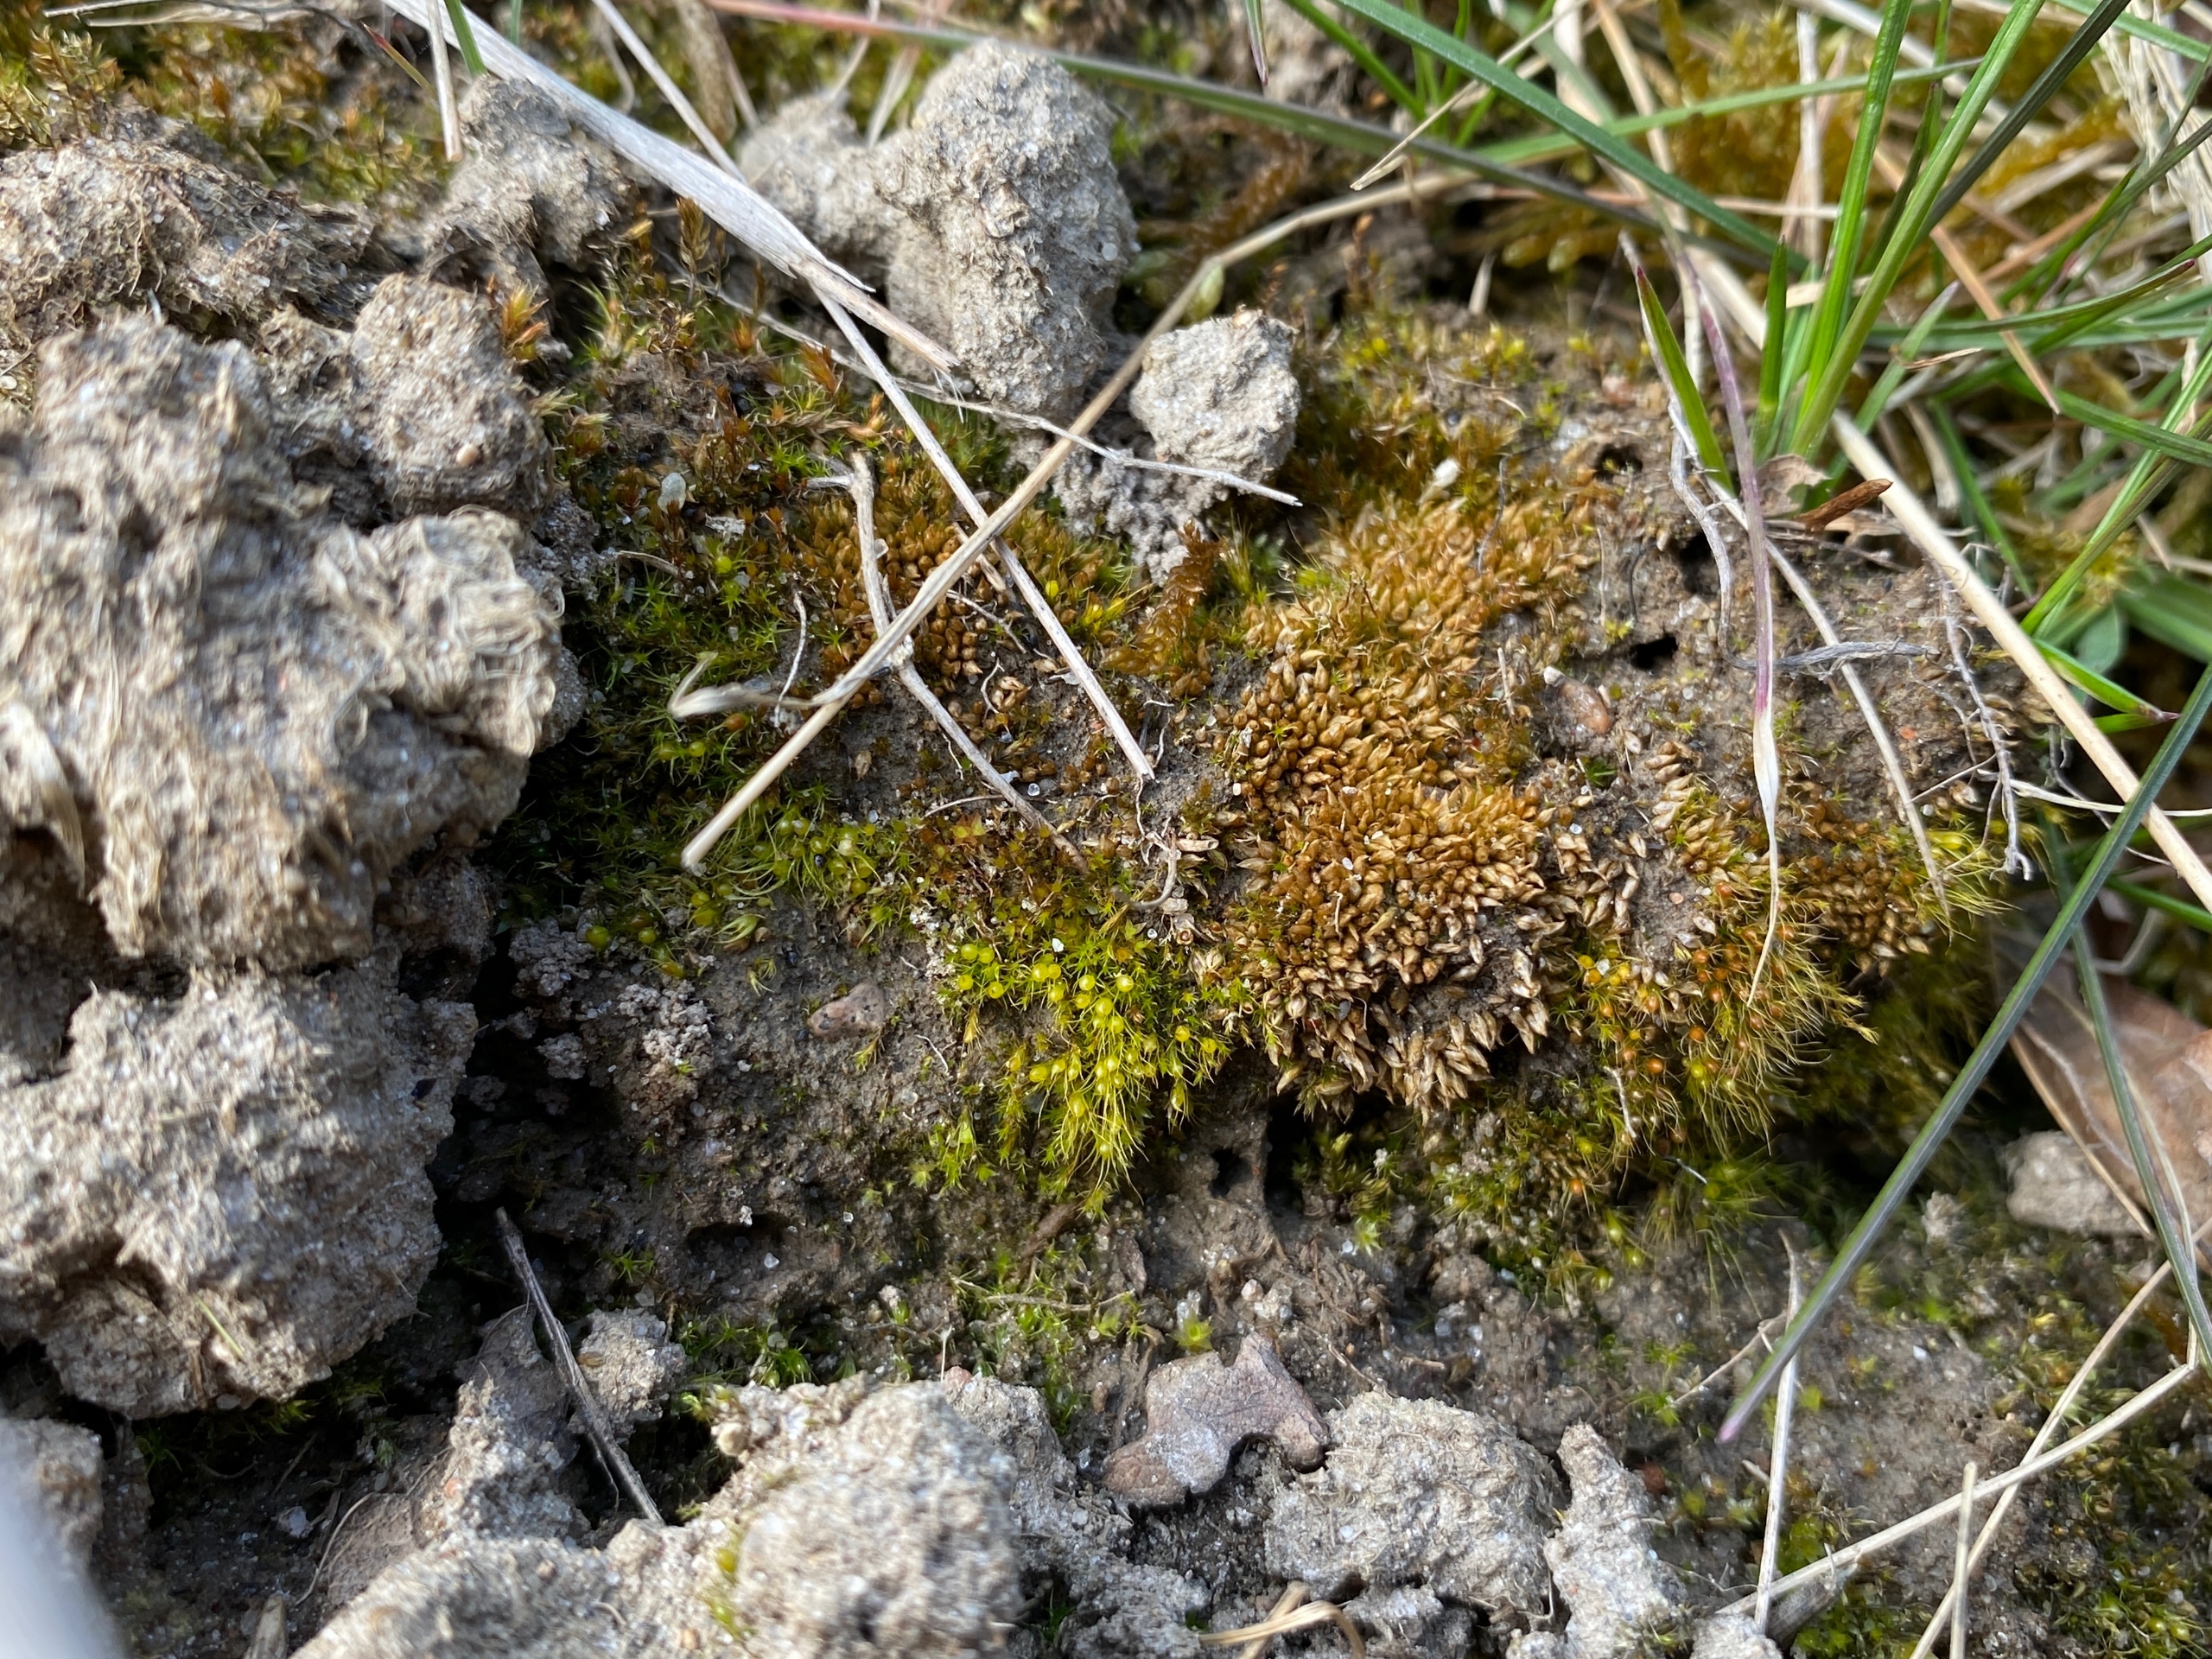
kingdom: Plantae
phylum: Bryophyta
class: Bryopsida
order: Pottiales
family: Pottiaceae
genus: Acaulon
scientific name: Acaulon muticum
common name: Siddende ægmos
